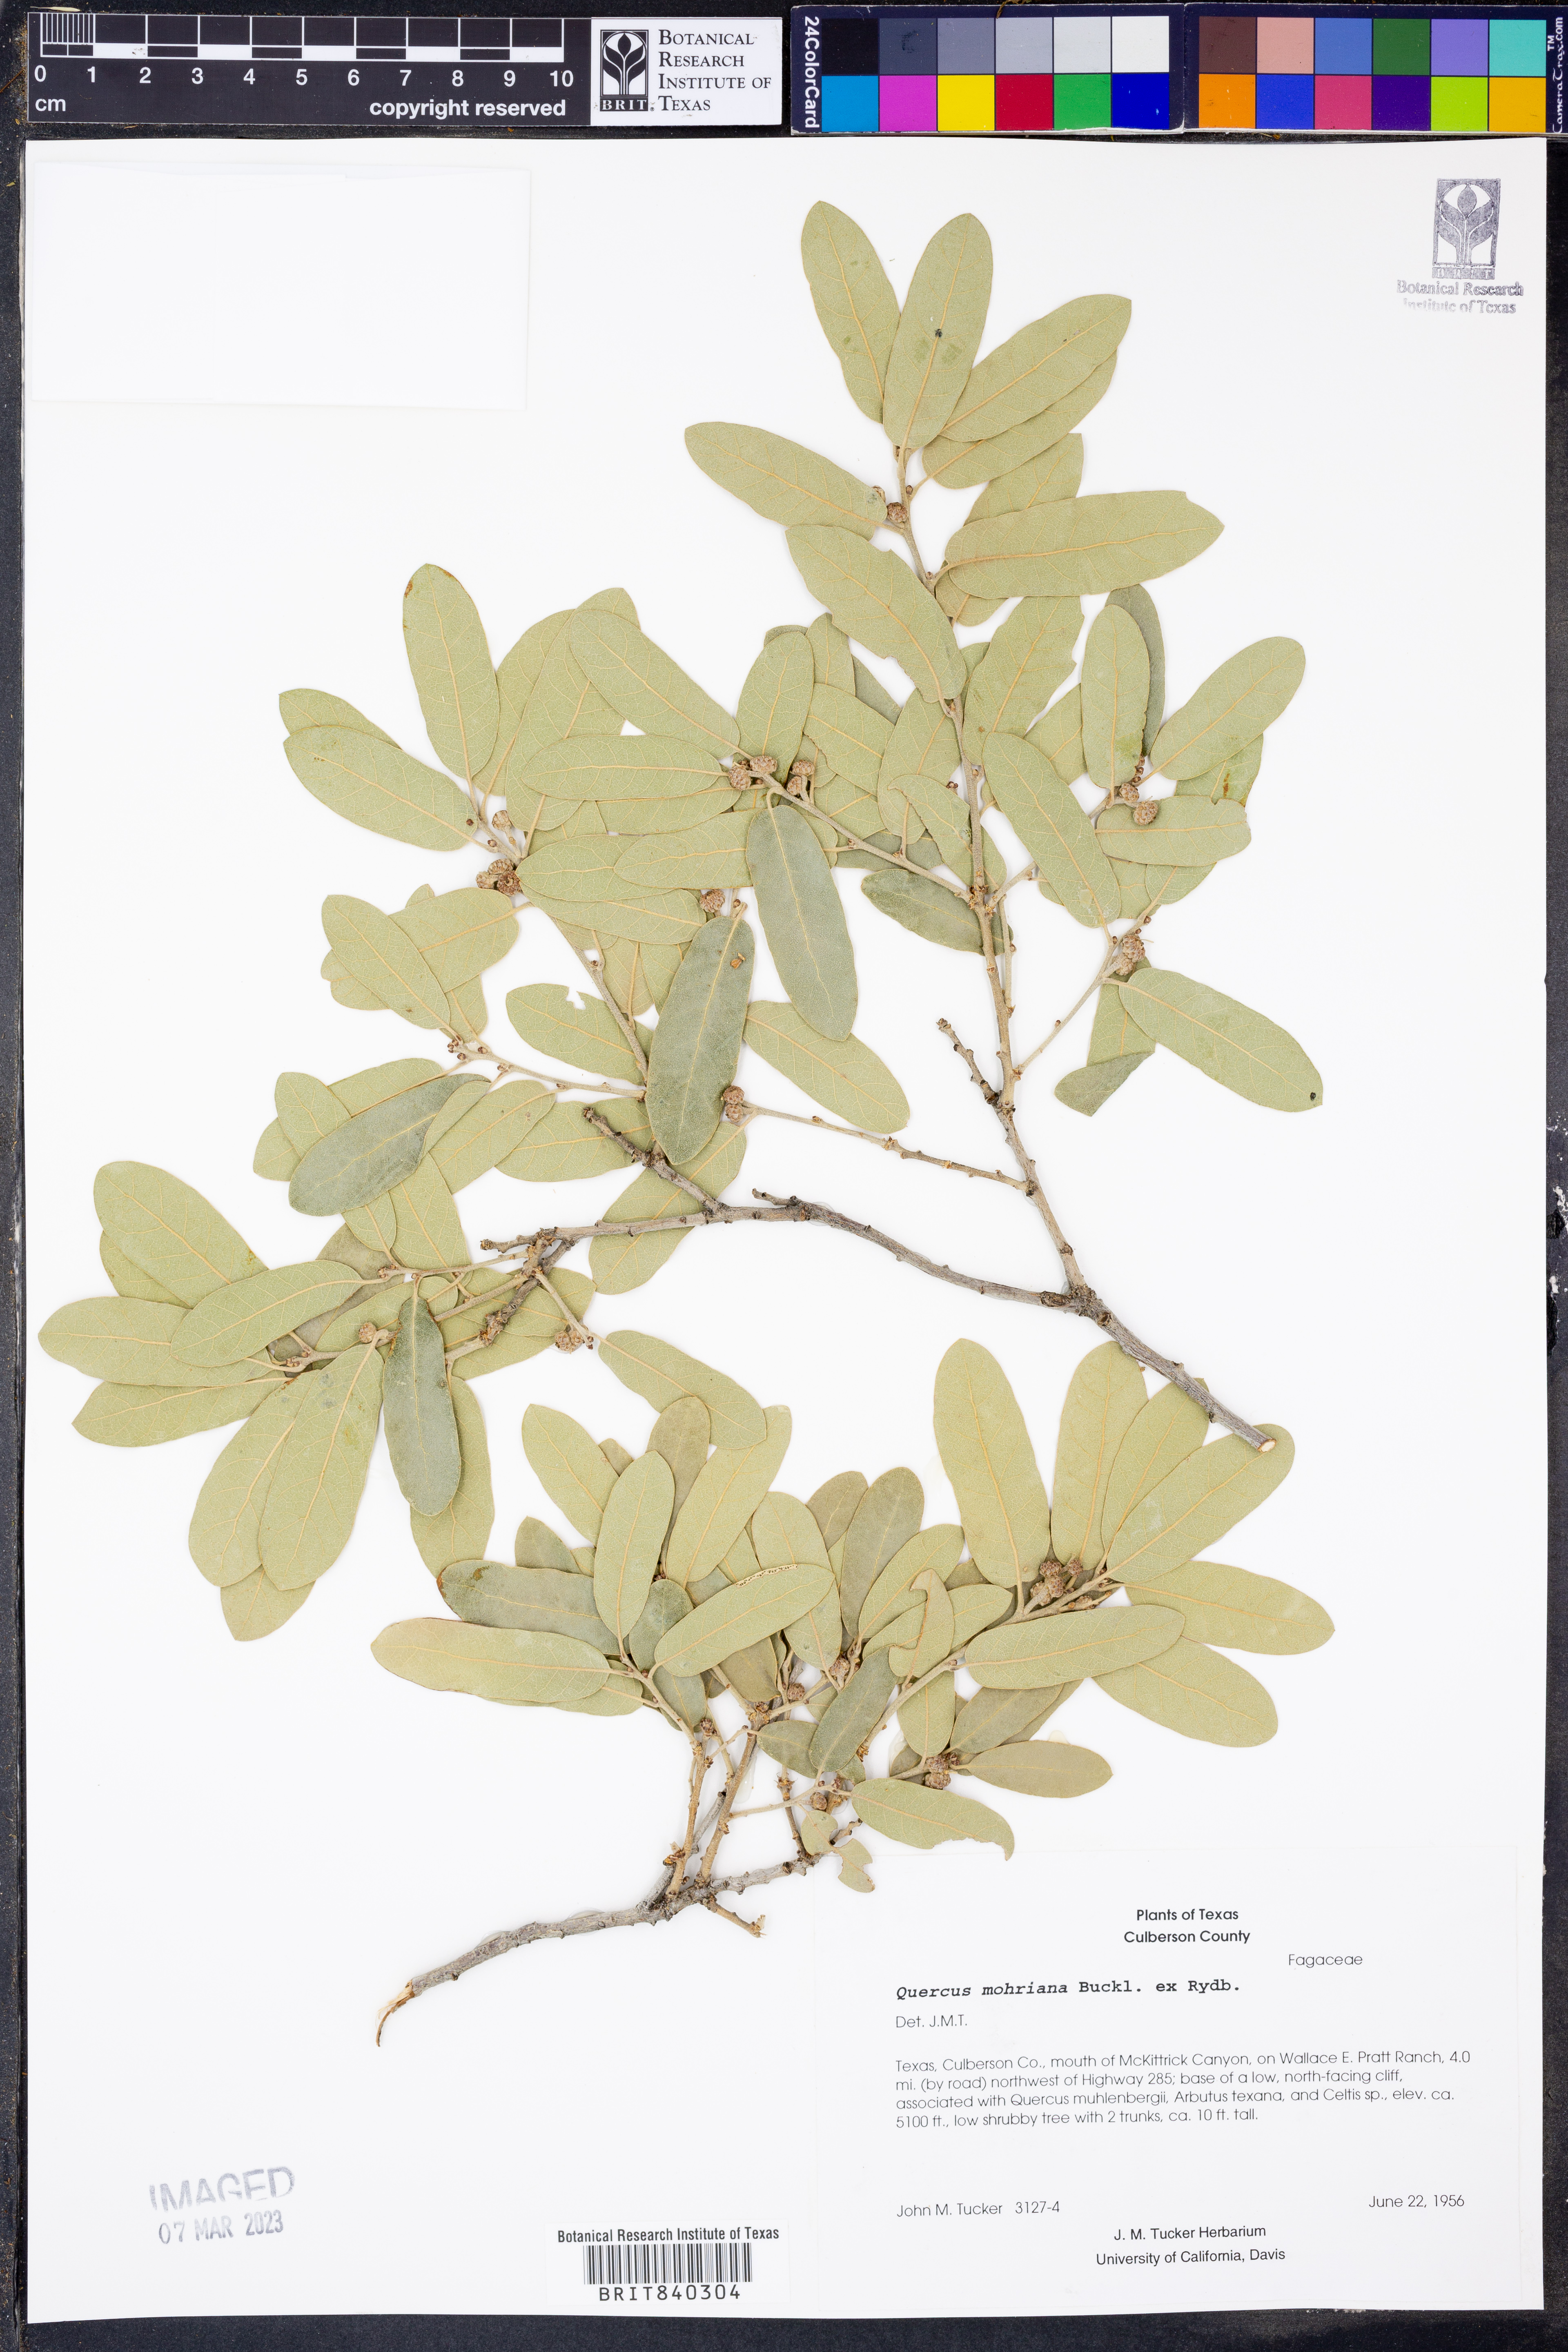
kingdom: Plantae
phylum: Tracheophyta
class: Magnoliopsida
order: Fagales
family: Fagaceae
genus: Quercus
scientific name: Quercus mohriana
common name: Mohr oak
